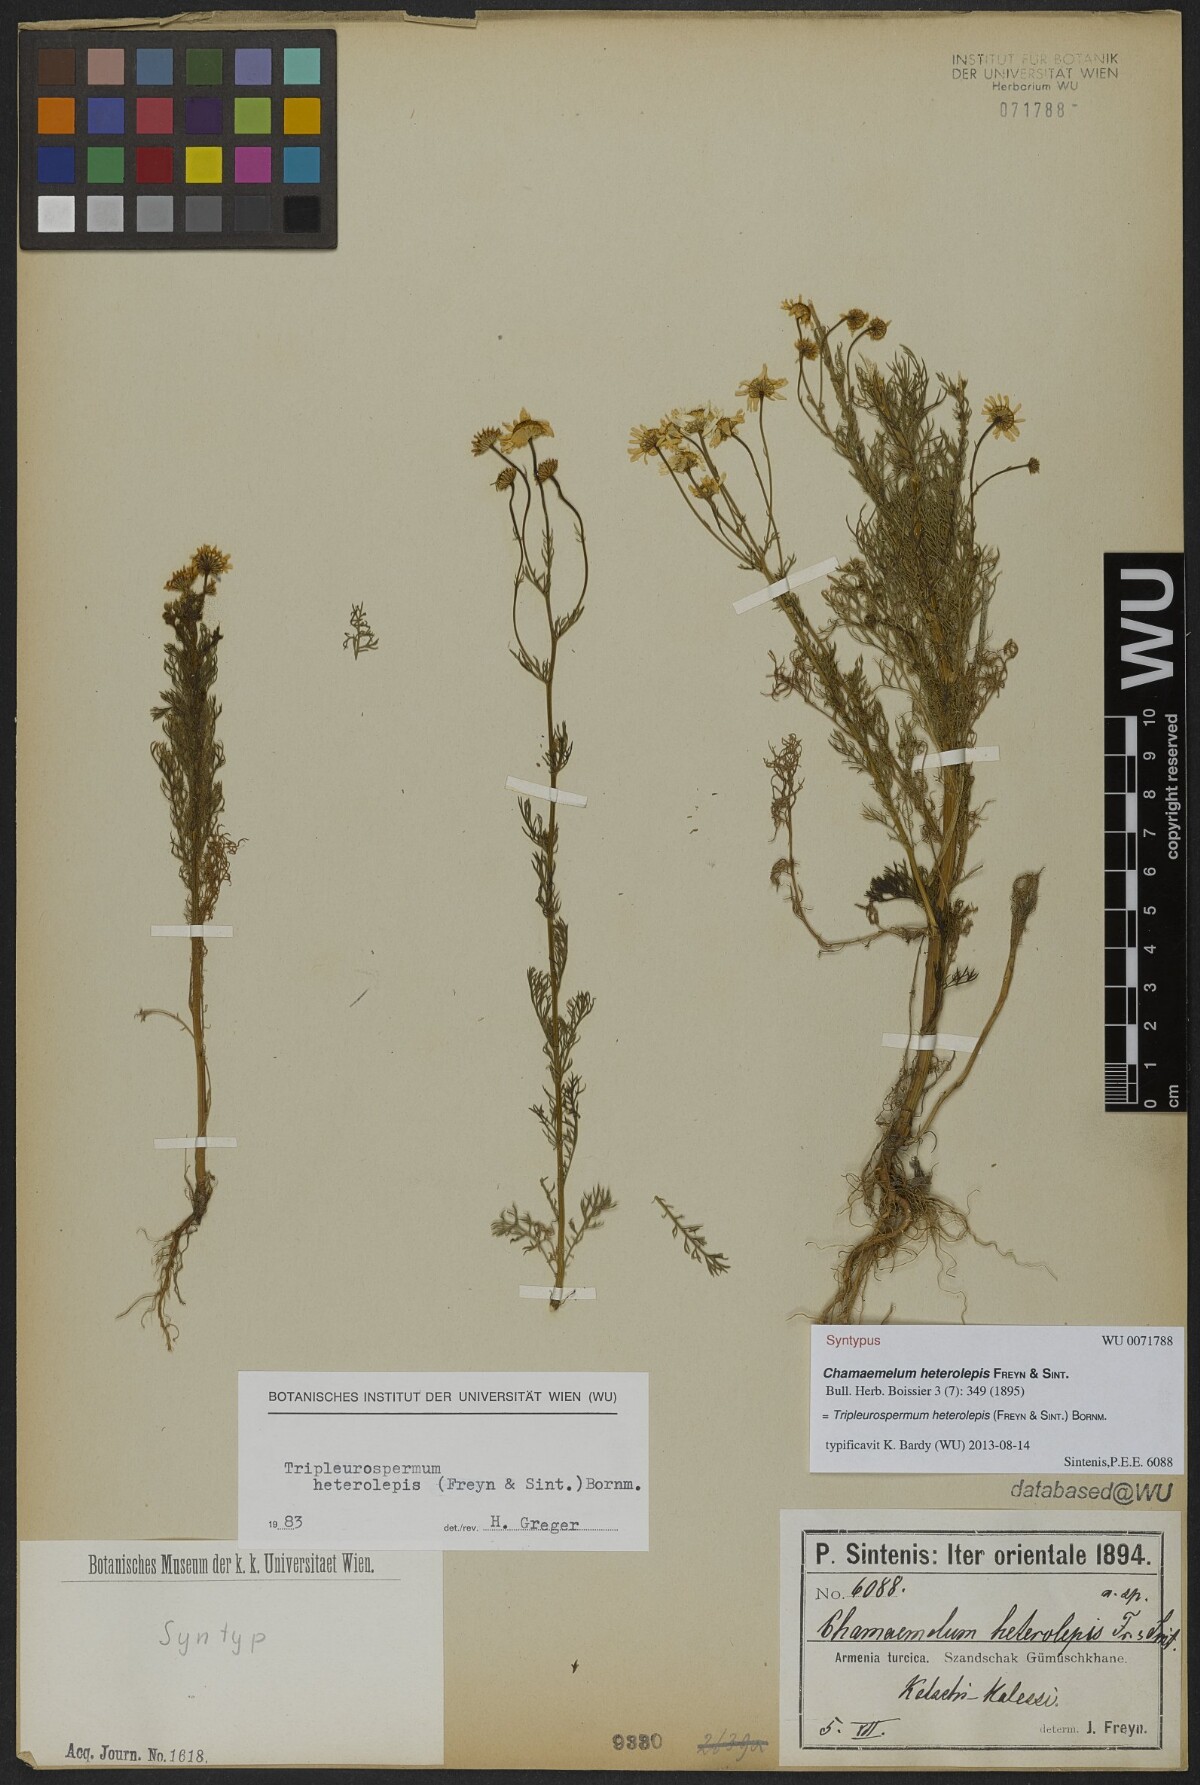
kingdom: Plantae
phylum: Tracheophyta
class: Magnoliopsida
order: Asterales
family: Asteraceae
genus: Tripleurospermum
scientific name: Tripleurospermum heterolepis
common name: Tripleurospermum
